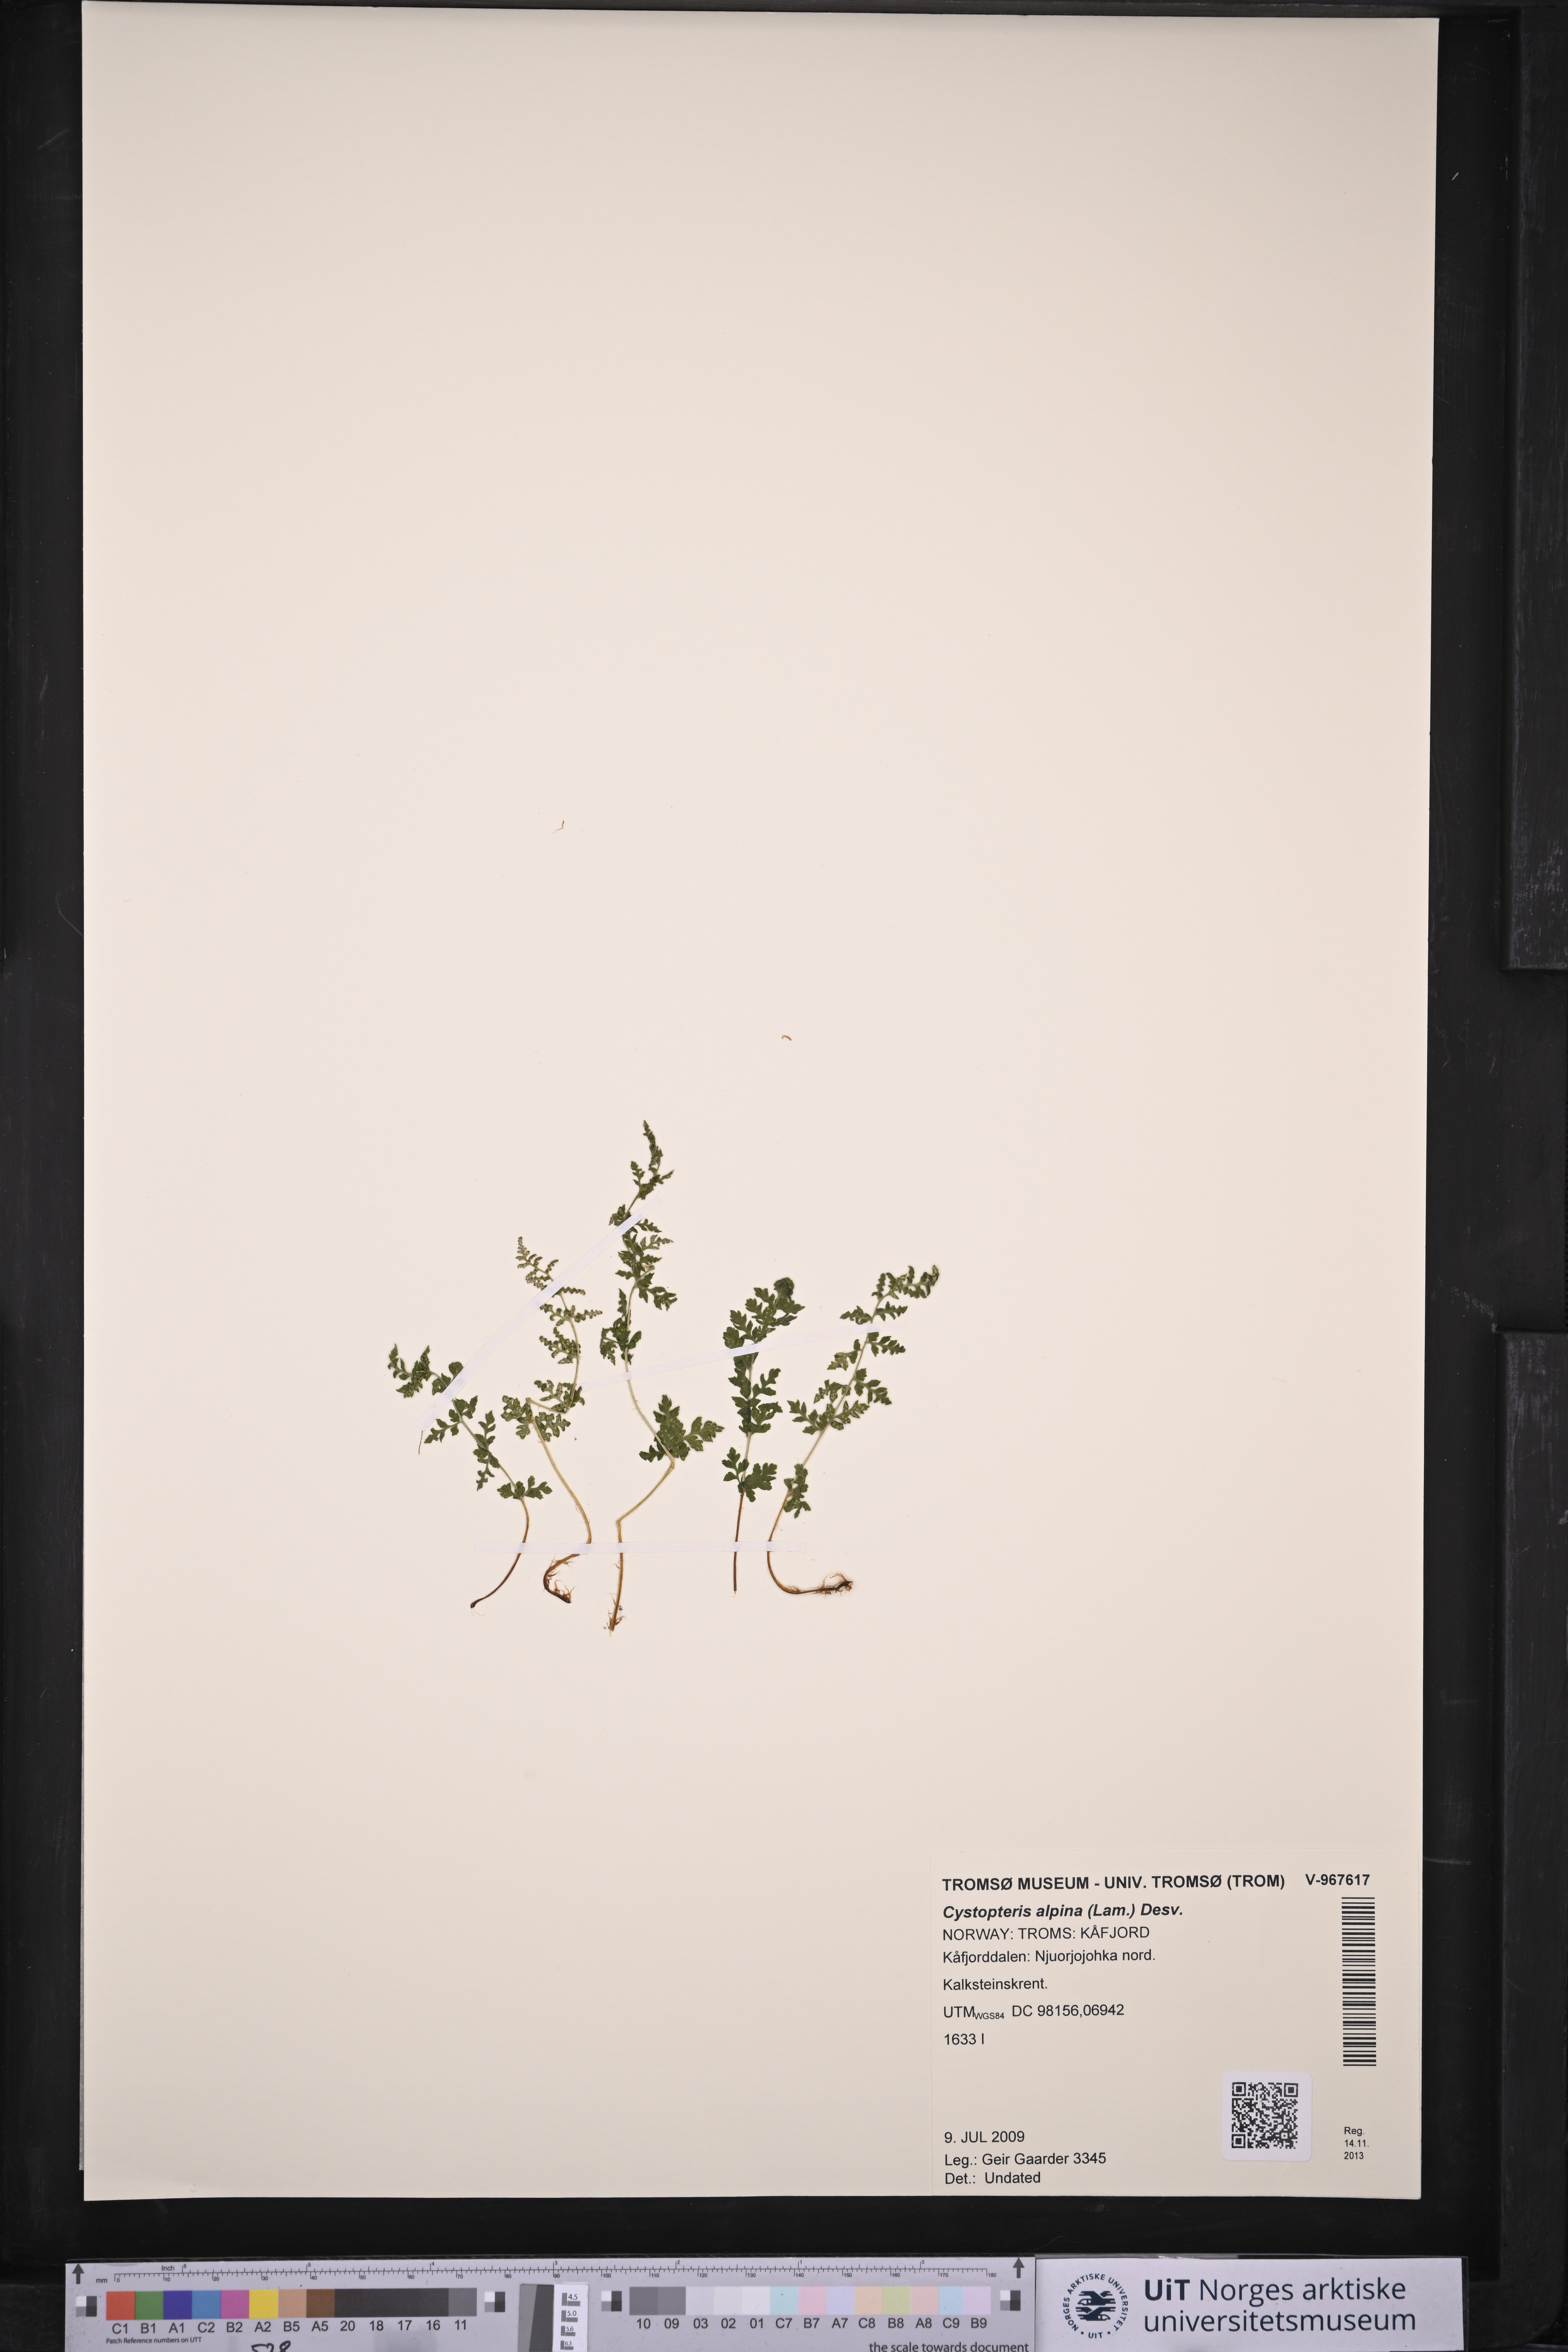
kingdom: Plantae
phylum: Tracheophyta
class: Polypodiopsida
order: Polypodiales
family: Cystopteridaceae
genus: Cystopteris
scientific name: Cystopteris alpina
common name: Alpine bladder-fern
